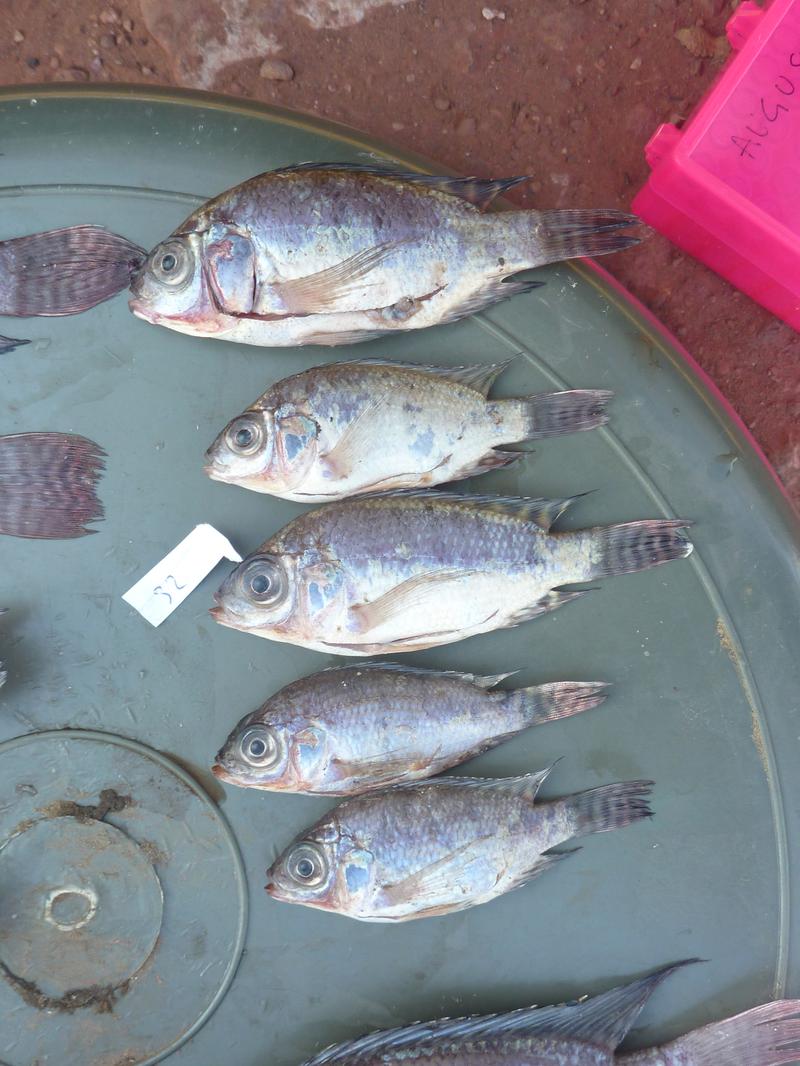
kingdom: Animalia
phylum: Chordata
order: Perciformes
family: Cichlidae
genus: Oreochromis
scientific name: Oreochromis niloticus
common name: Nile tilapia
